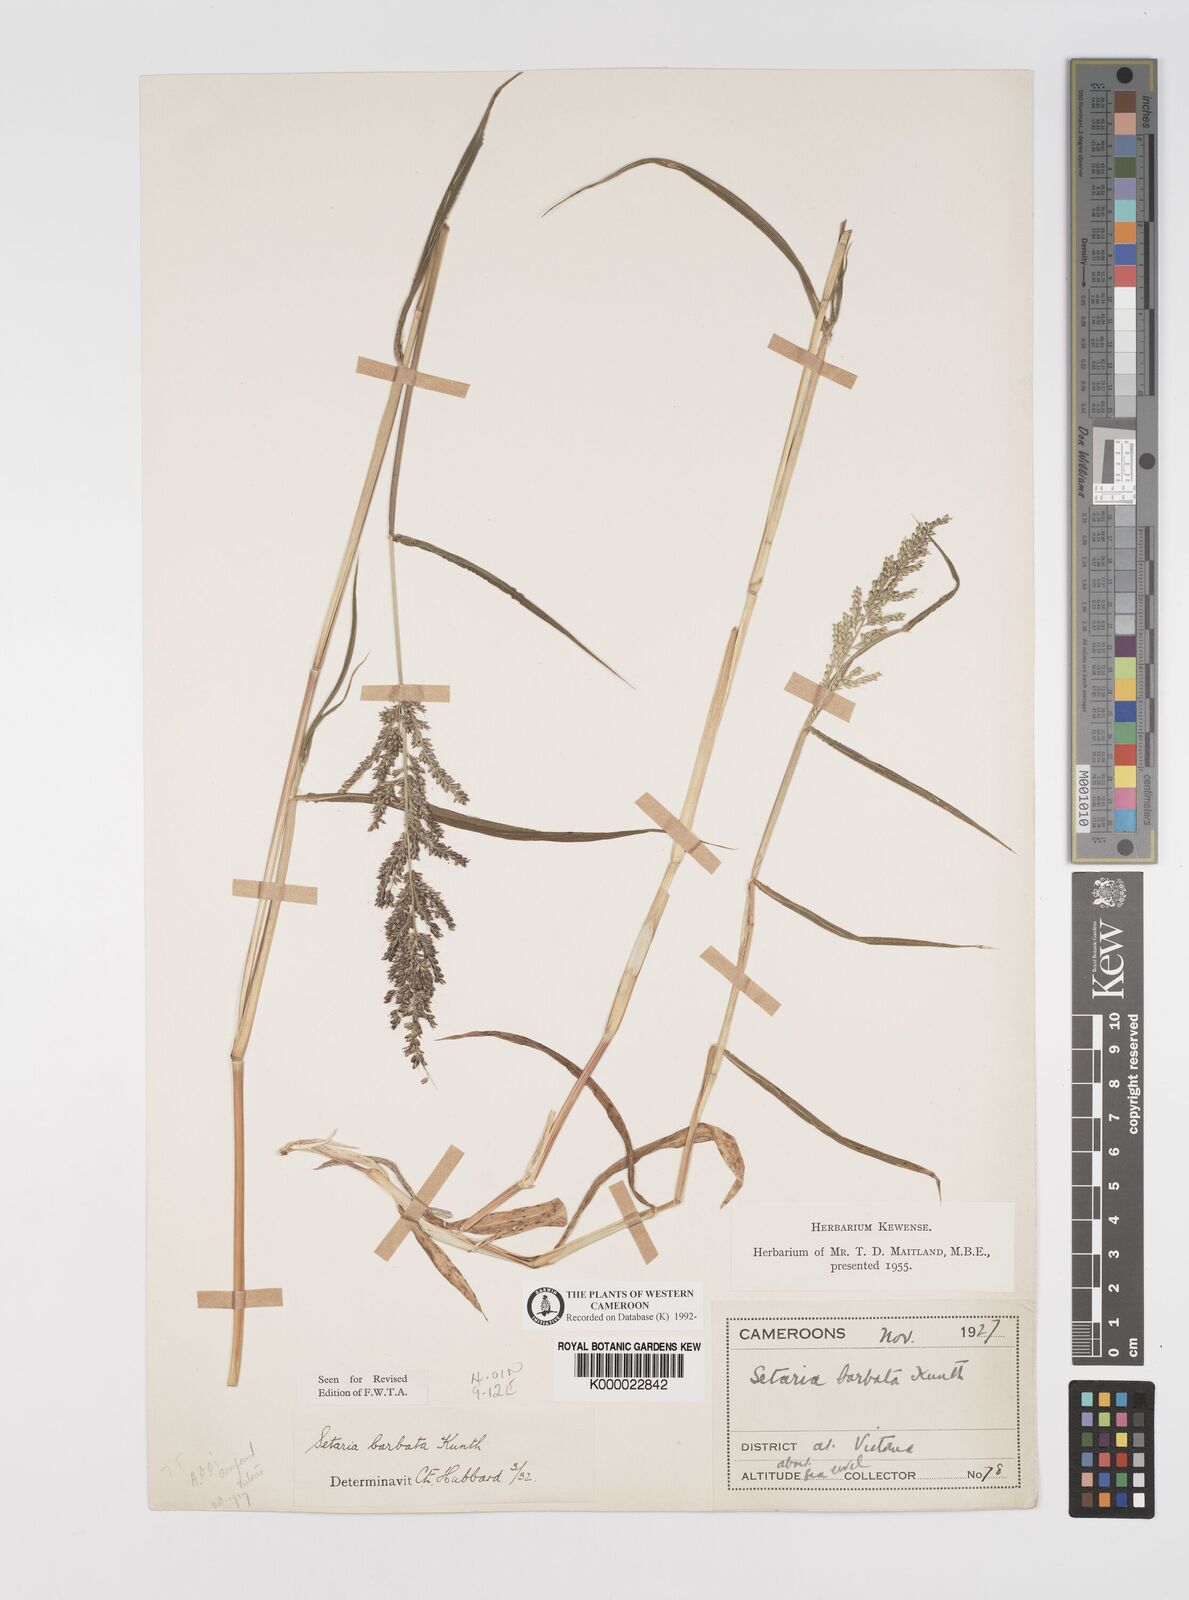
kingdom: Plantae
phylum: Tracheophyta
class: Liliopsida
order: Poales
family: Poaceae
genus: Setaria
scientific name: Setaria barbata
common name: East indian bristlegrass
